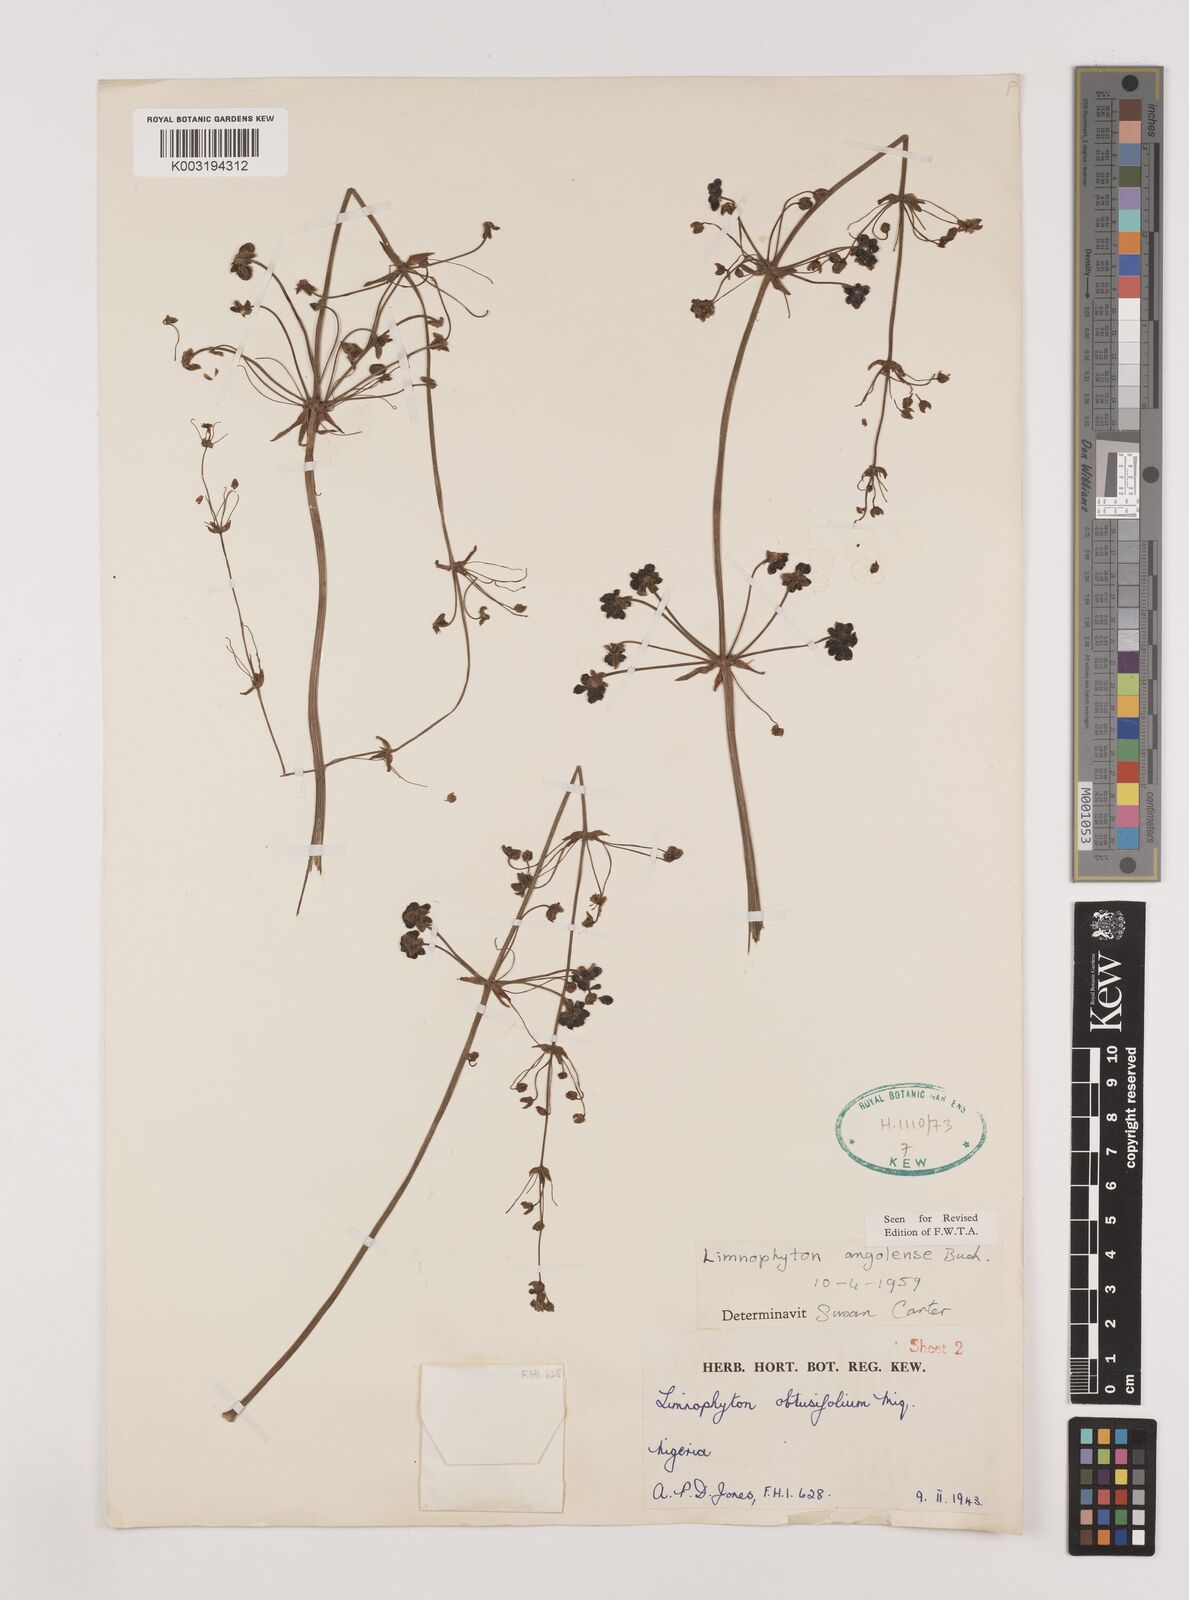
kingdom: Plantae
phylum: Tracheophyta
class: Liliopsida
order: Alismatales
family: Alismataceae
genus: Limnophyton
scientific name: Limnophyton angolense
